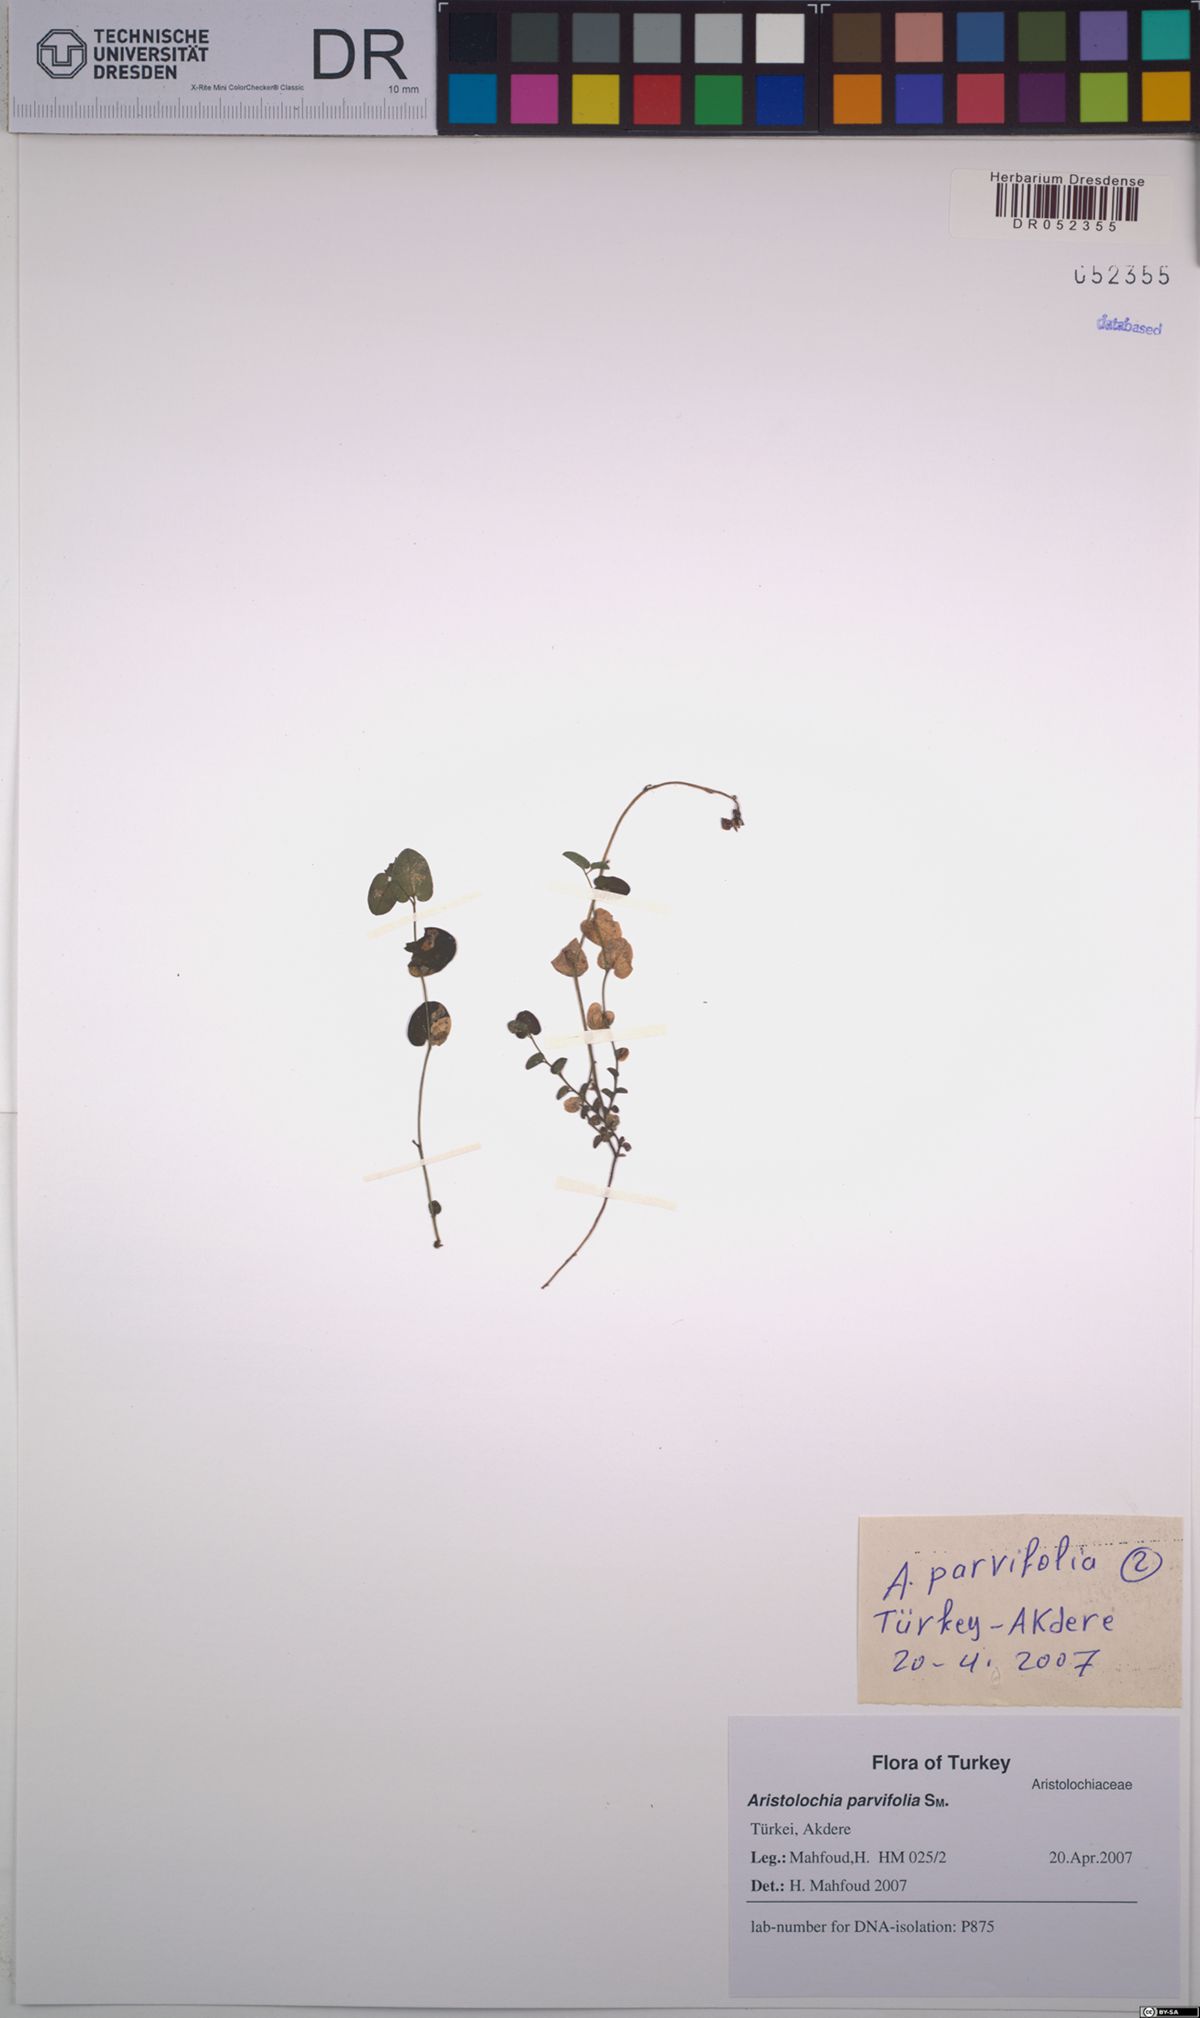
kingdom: Plantae
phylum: Tracheophyta
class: Magnoliopsida
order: Piperales
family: Aristolochiaceae
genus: Aristolochia
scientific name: Aristolochia parvifolia
